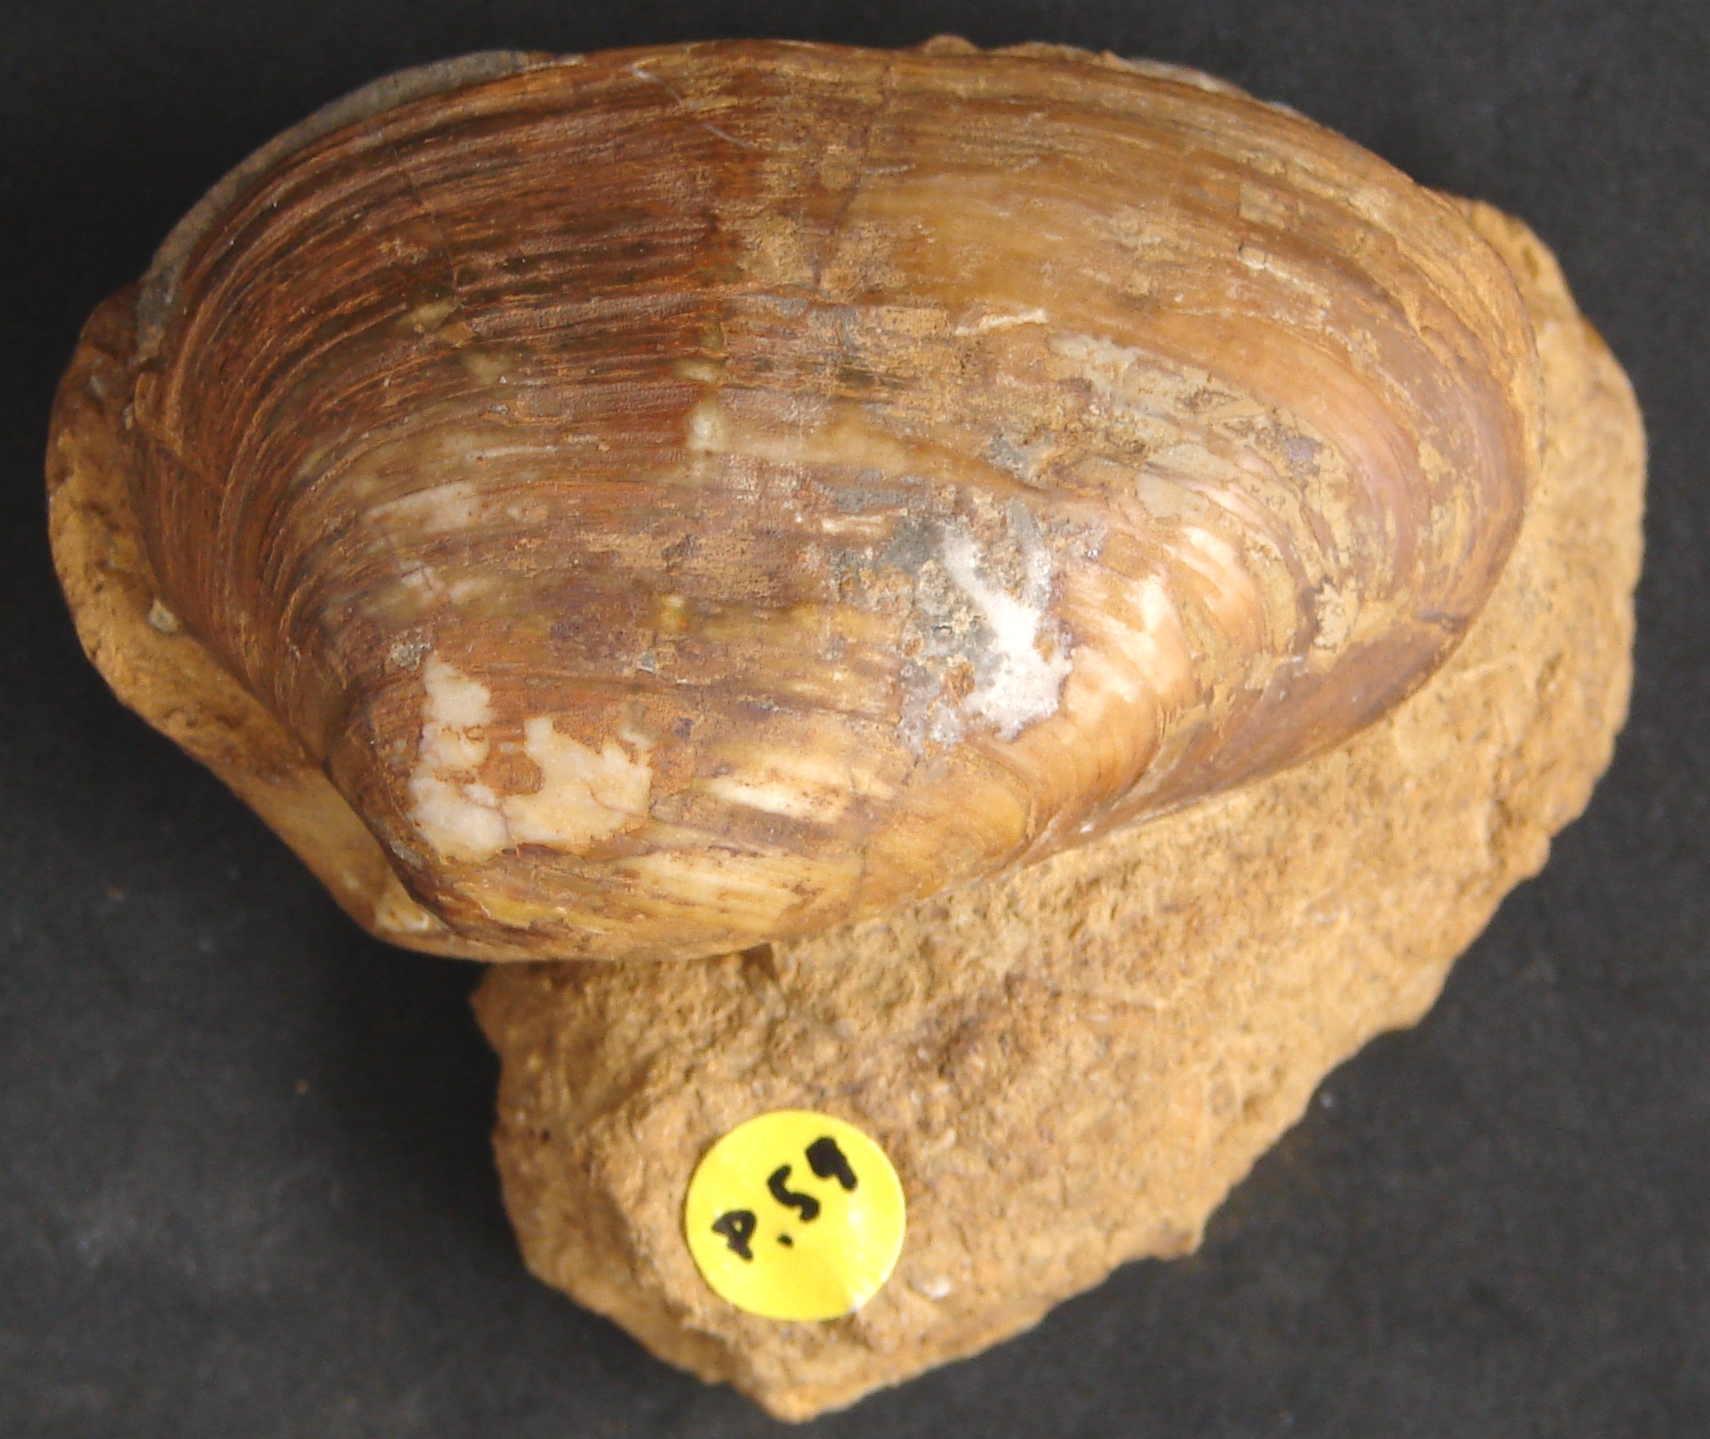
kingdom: Animalia
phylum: Mollusca
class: Bivalvia
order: Carditida
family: Cardiniidae
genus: Cardinia
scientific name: Cardinia concinna
